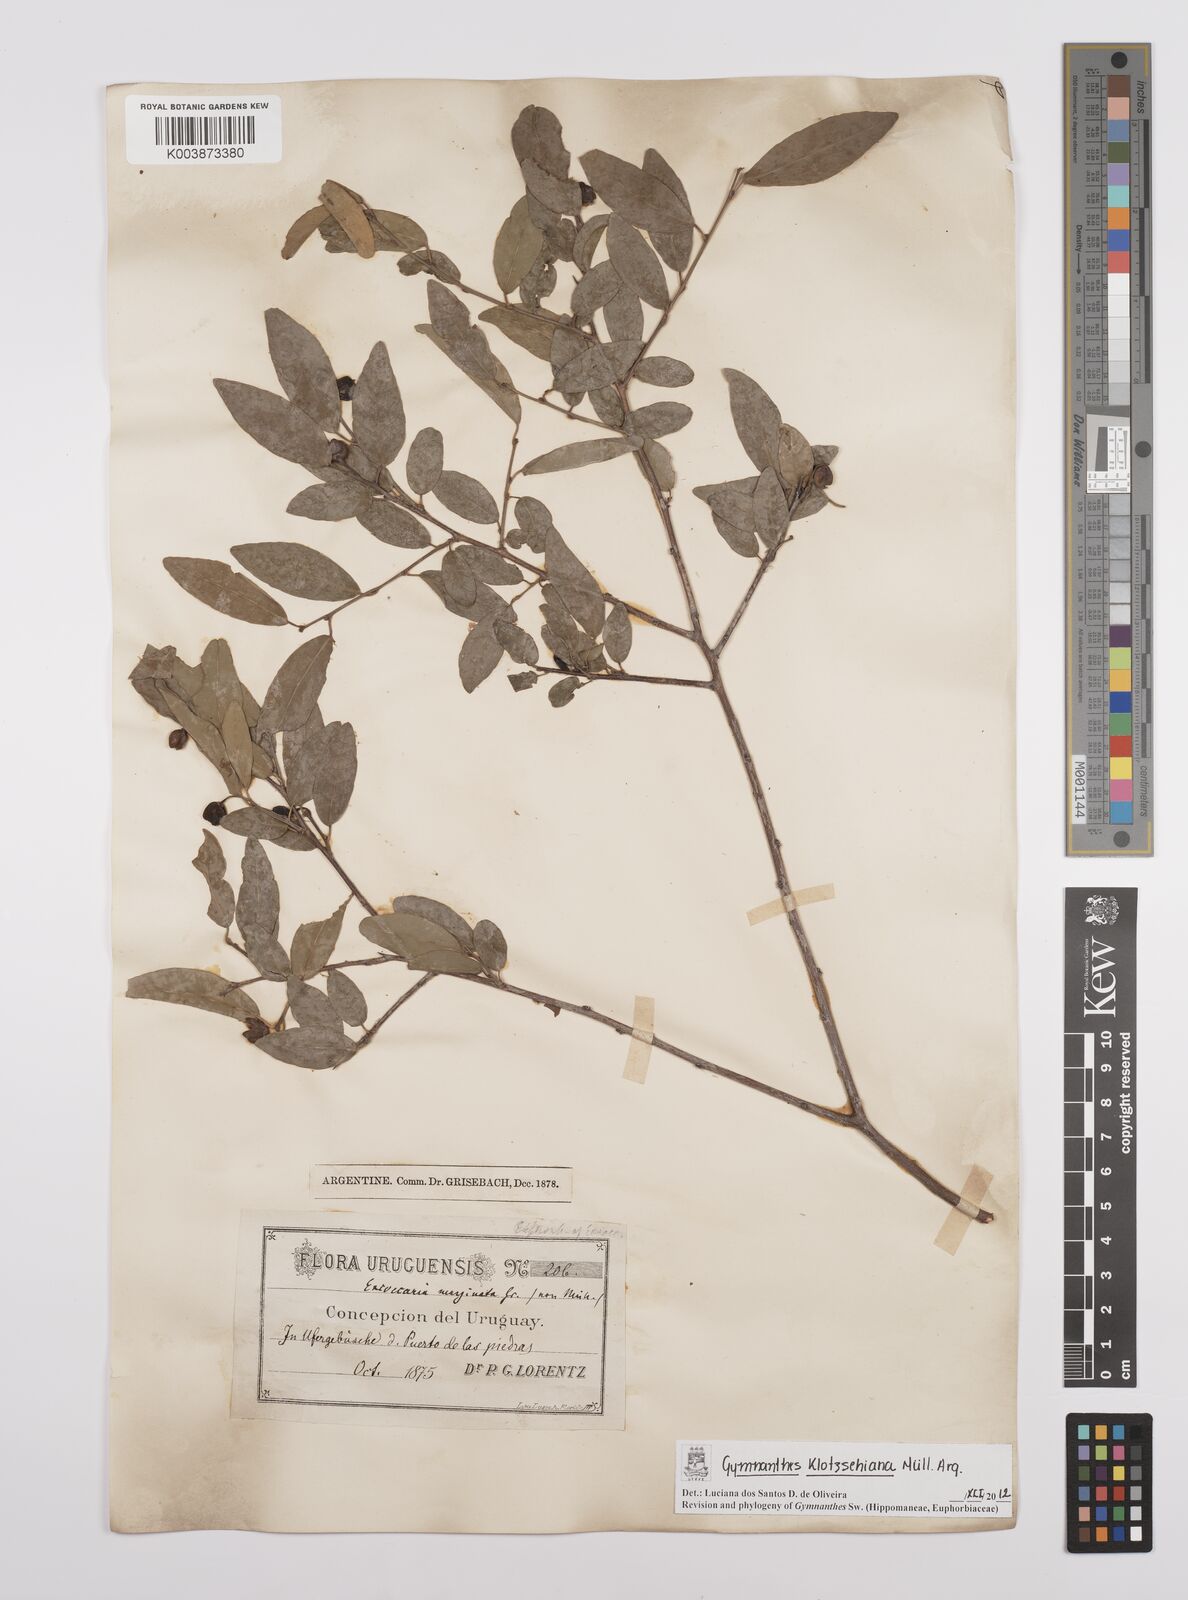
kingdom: Plantae
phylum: Tracheophyta
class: Magnoliopsida
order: Malpighiales
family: Euphorbiaceae
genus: Sebastiania
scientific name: Sebastiania klotzschiana
